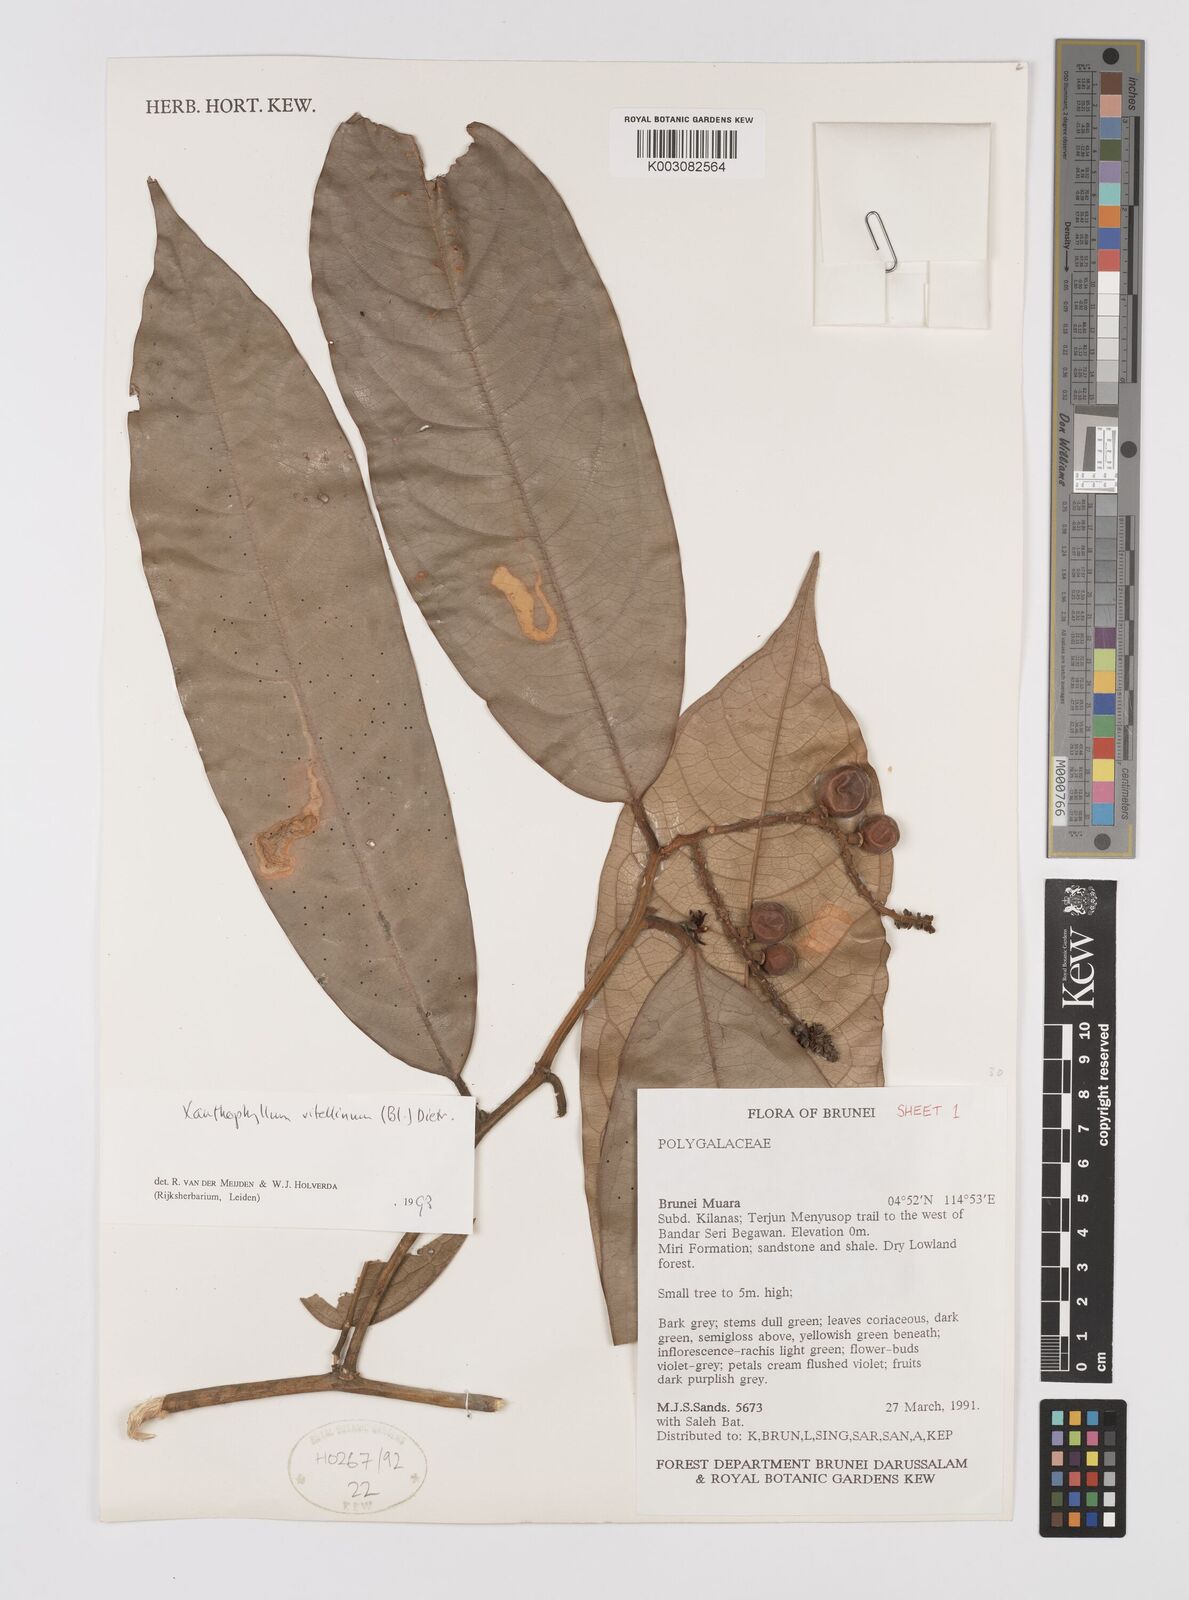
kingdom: Plantae
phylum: Tracheophyta
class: Magnoliopsida
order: Fabales
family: Polygalaceae
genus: Xanthophyllum
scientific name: Xanthophyllum vitellinum
